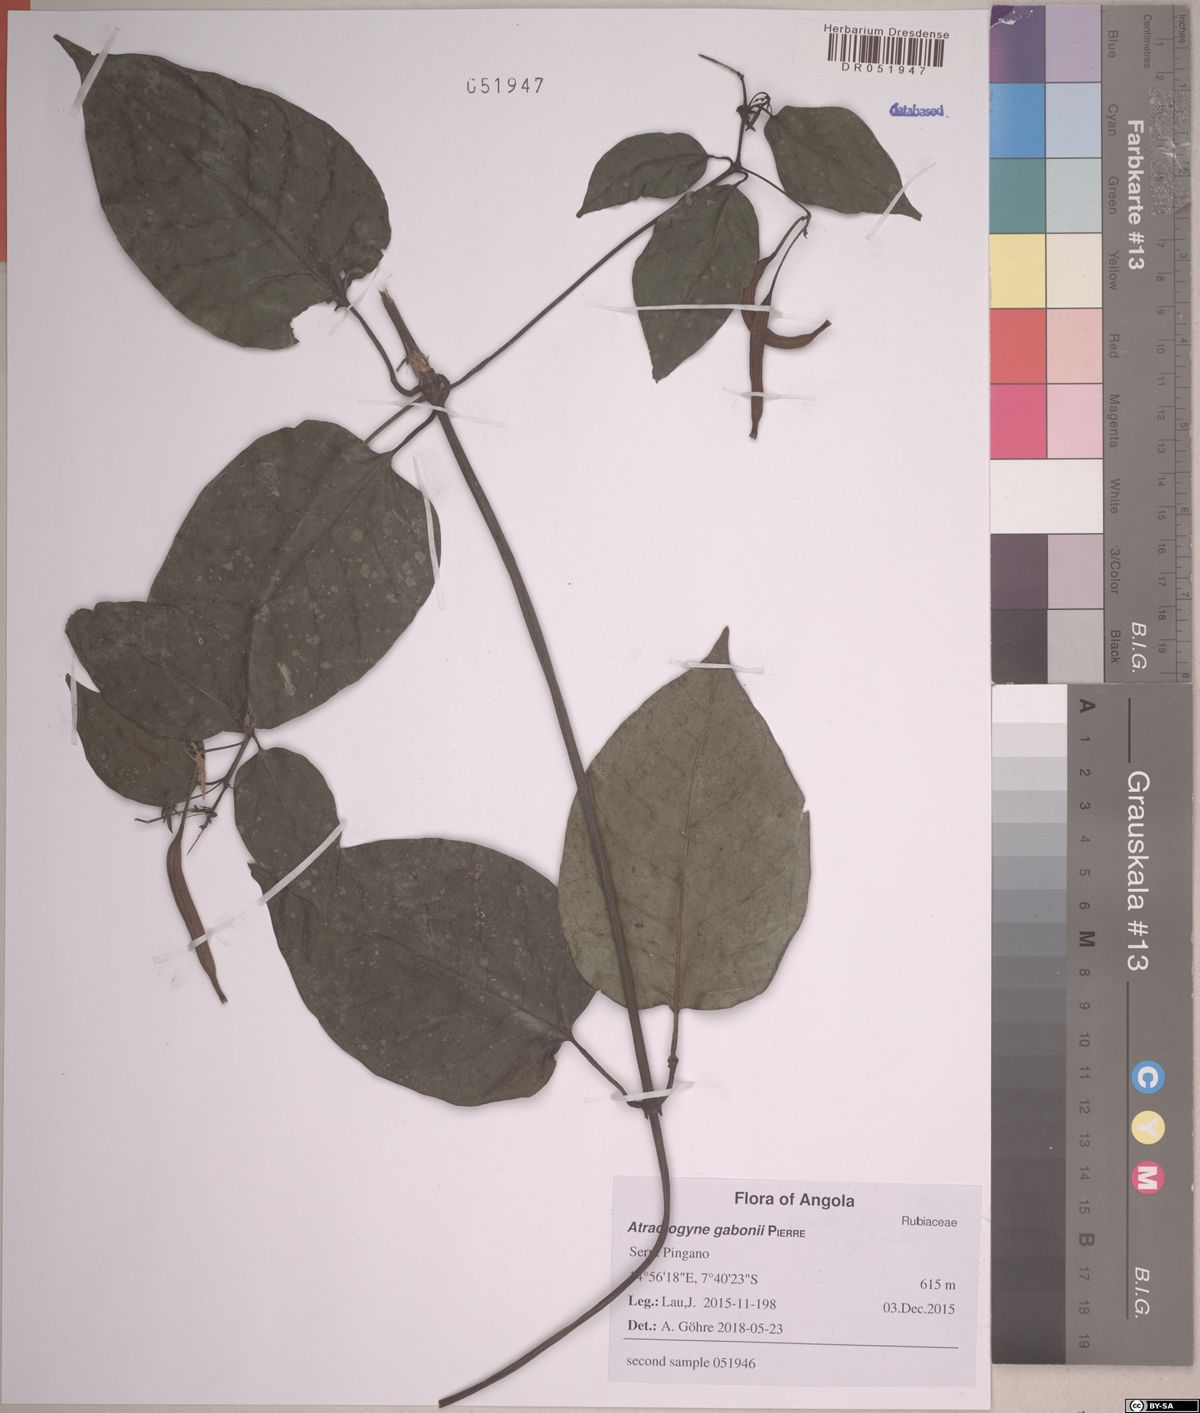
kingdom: Plantae
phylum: Tracheophyta
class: Magnoliopsida
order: Gentianales
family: Rubiaceae
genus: Atractogyne
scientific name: Atractogyne gabonii
